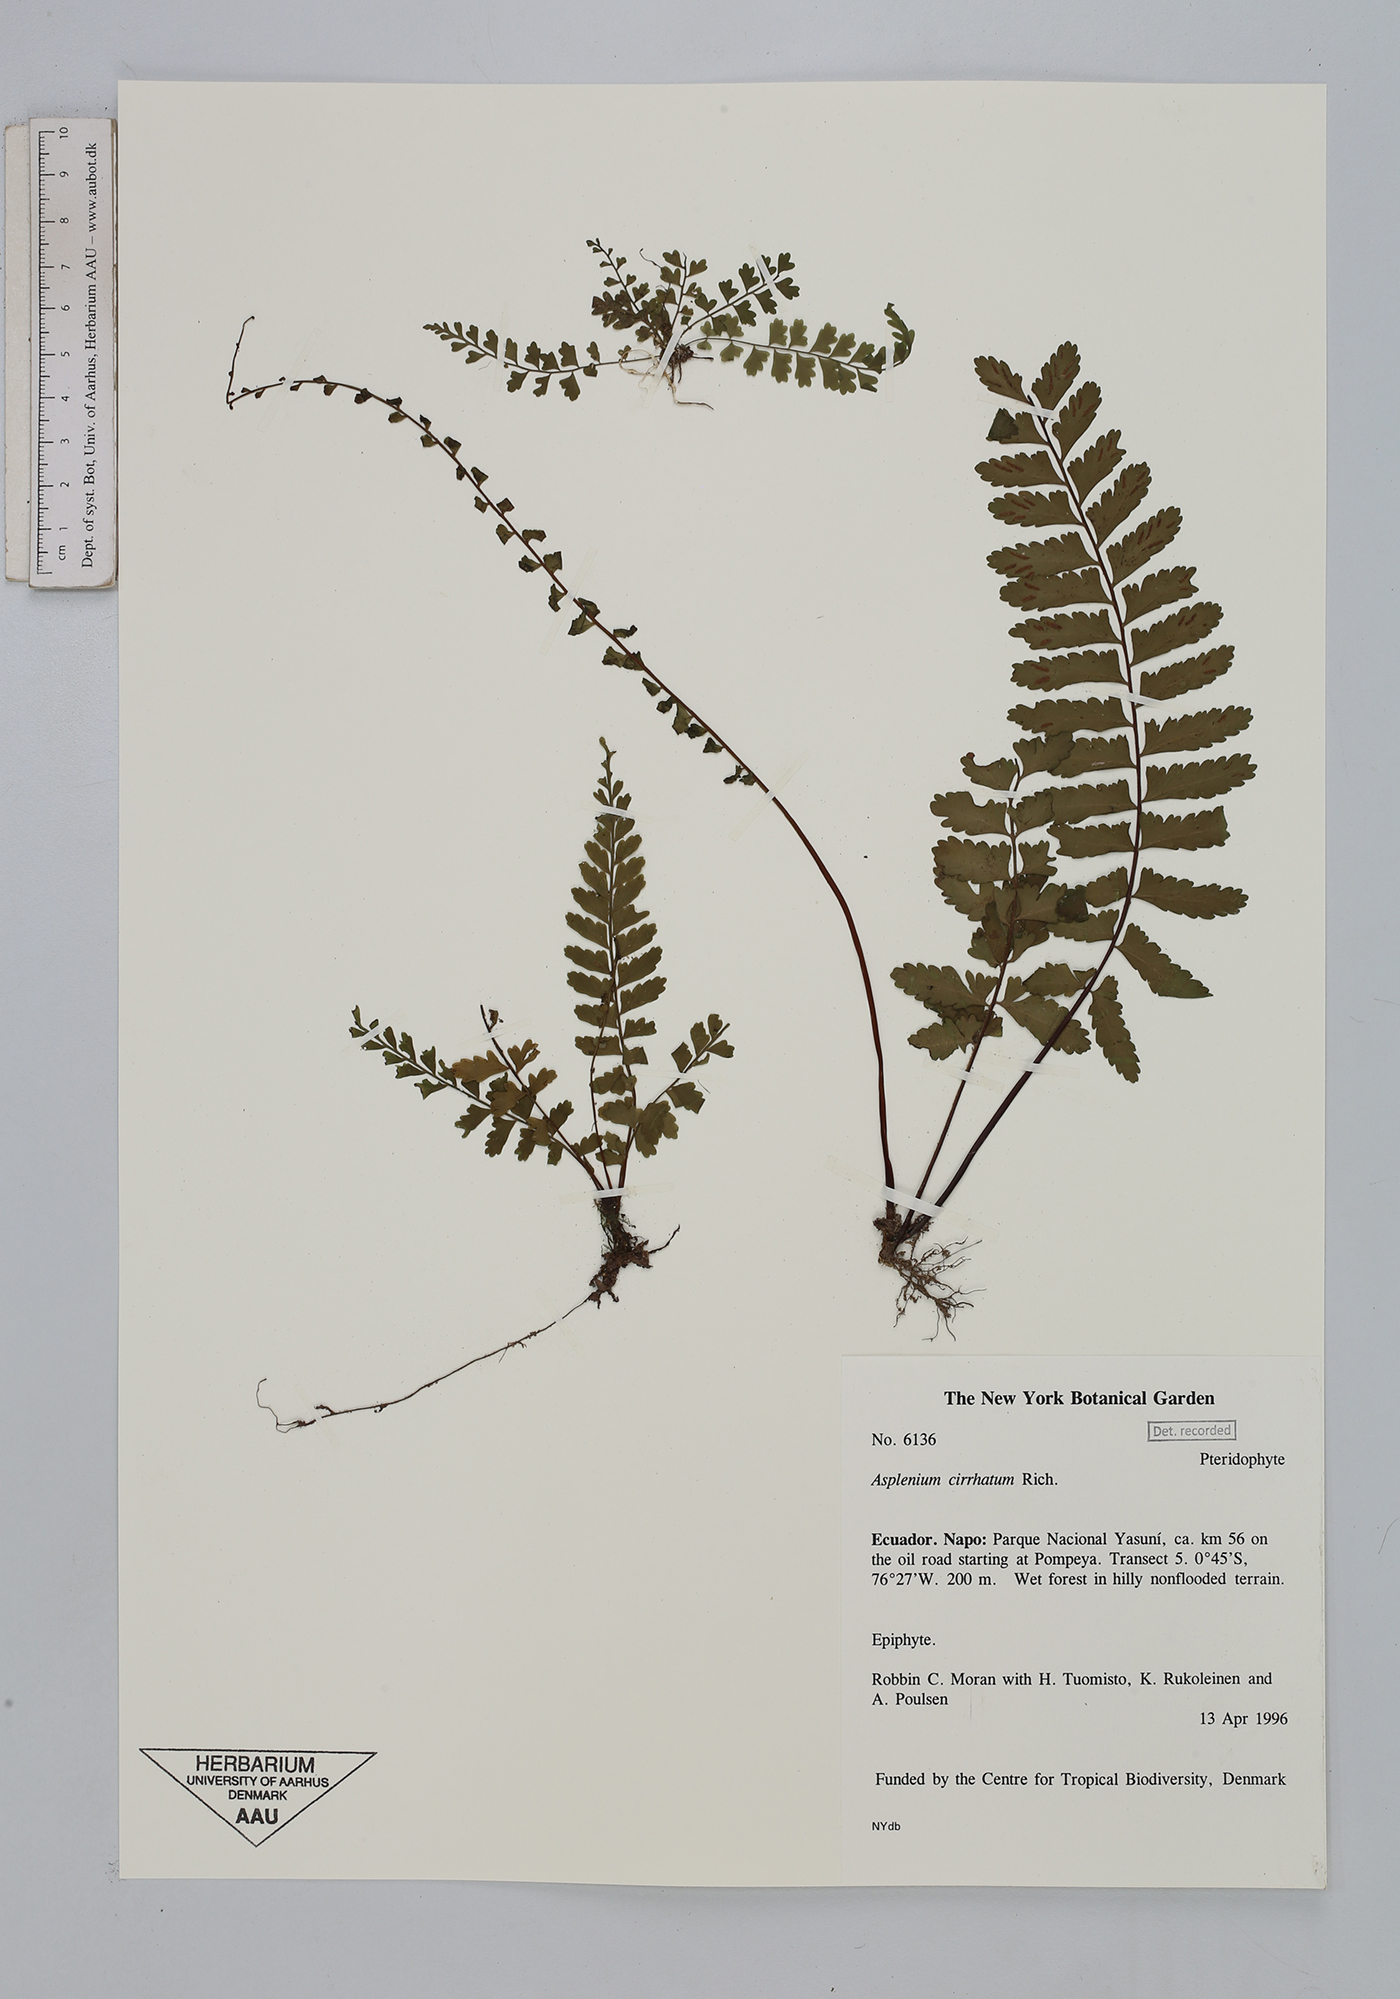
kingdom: Plantae
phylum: Tracheophyta
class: Polypodiopsida
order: Polypodiales
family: Aspleniaceae
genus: Asplenium
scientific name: Asplenium cirrhatum
